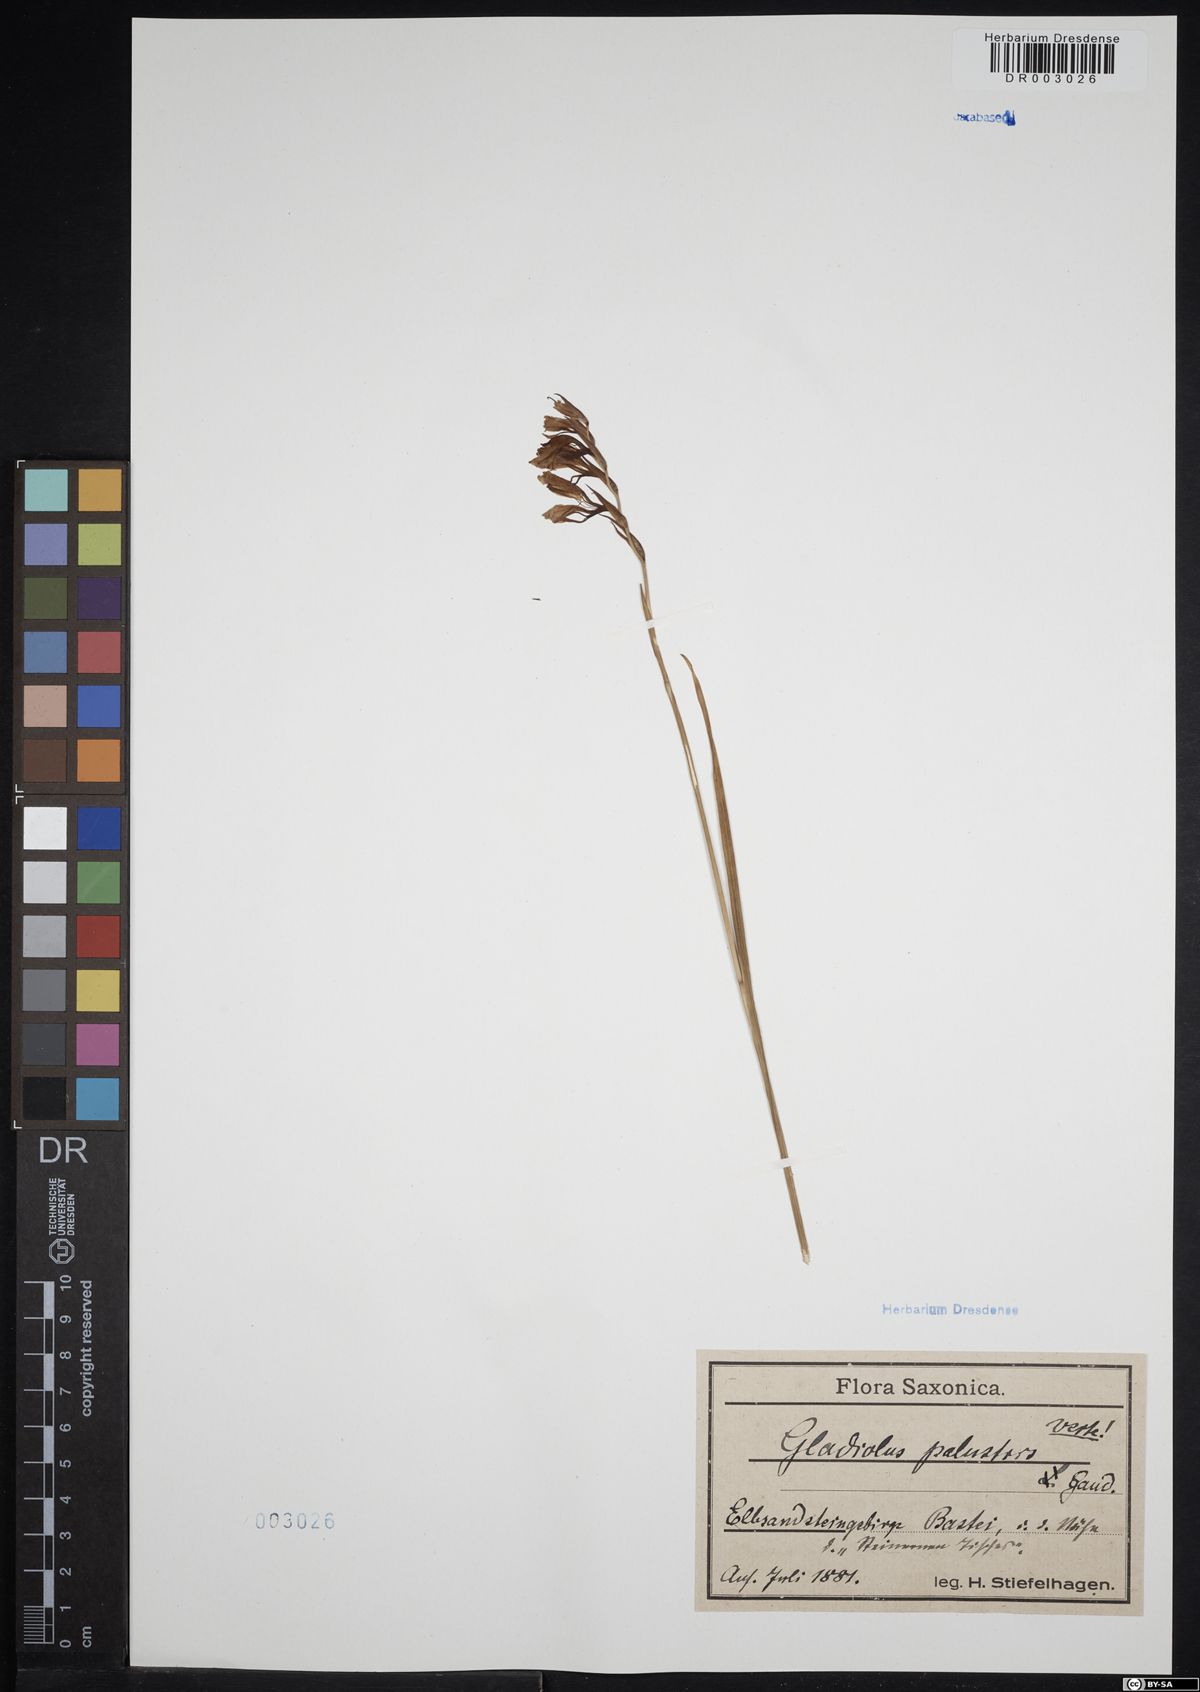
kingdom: Plantae
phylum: Tracheophyta
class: Liliopsida
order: Asparagales
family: Iridaceae
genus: Gladiolus
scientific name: Gladiolus palustris
